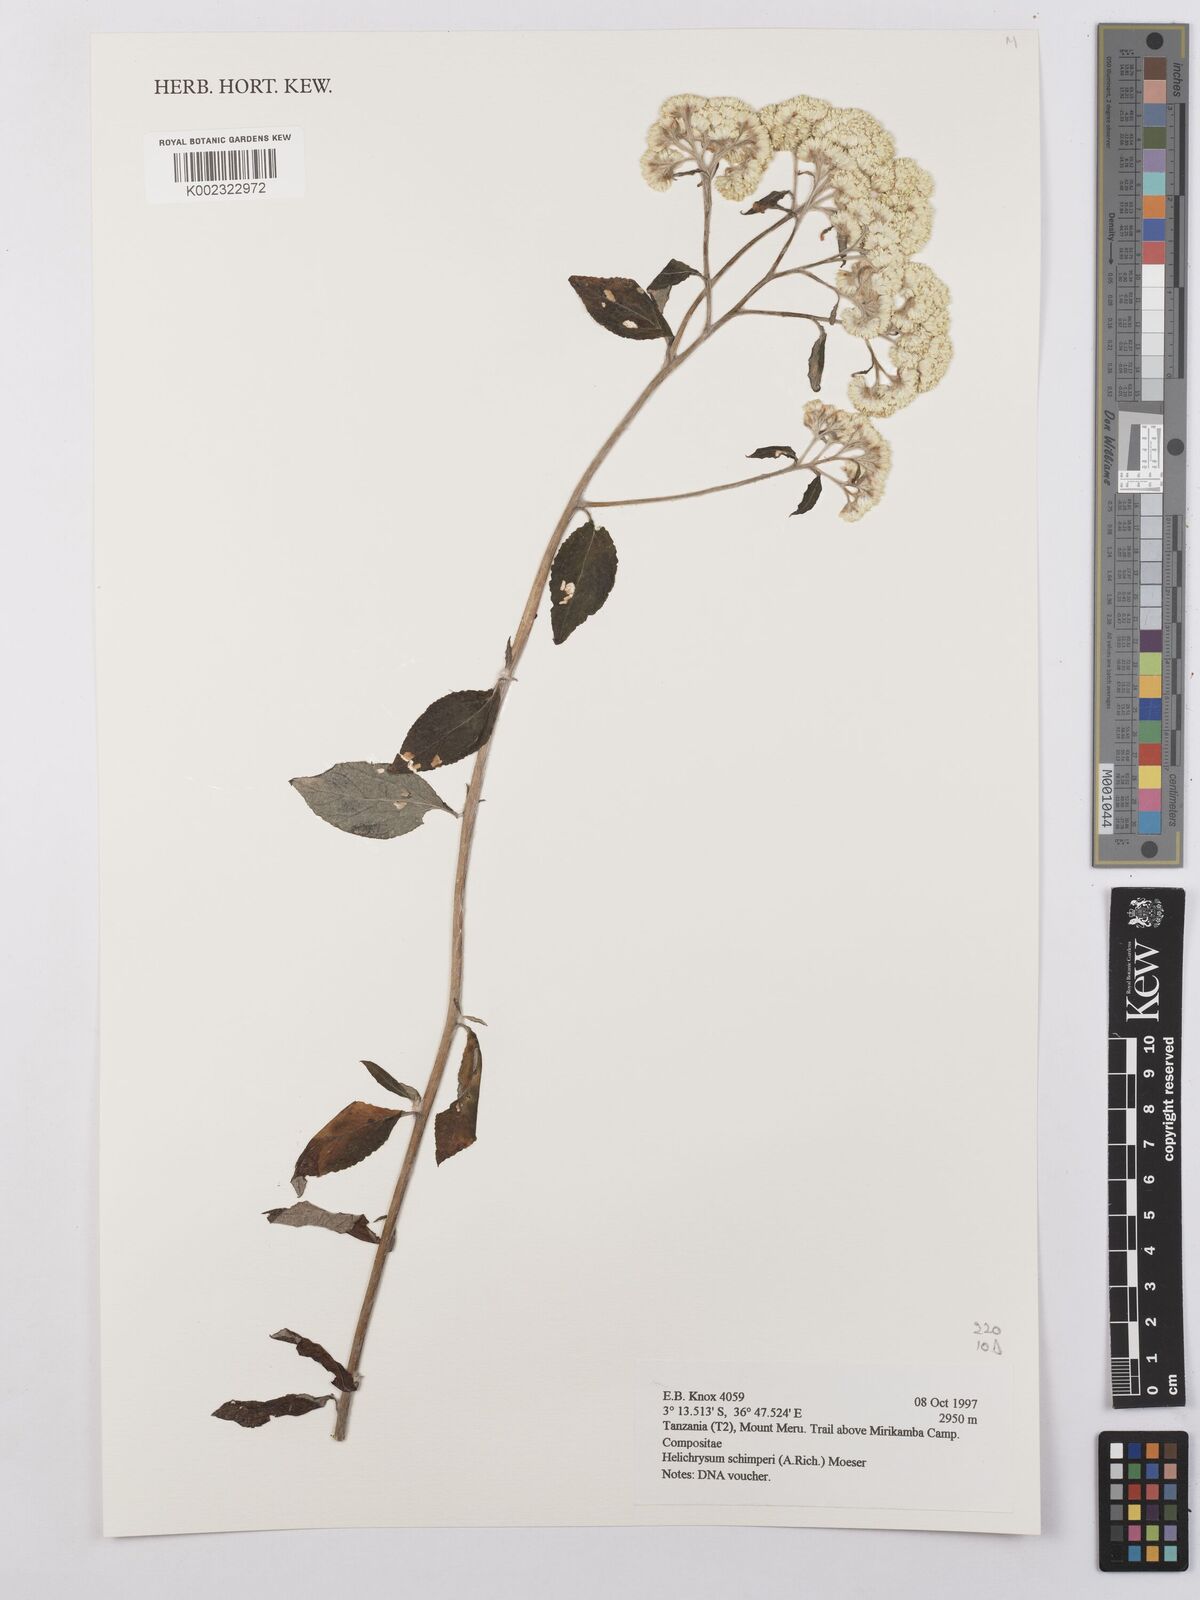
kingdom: Plantae
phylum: Tracheophyta
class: Magnoliopsida
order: Asterales
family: Asteraceae
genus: Helichrysum
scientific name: Helichrysum schimperi
